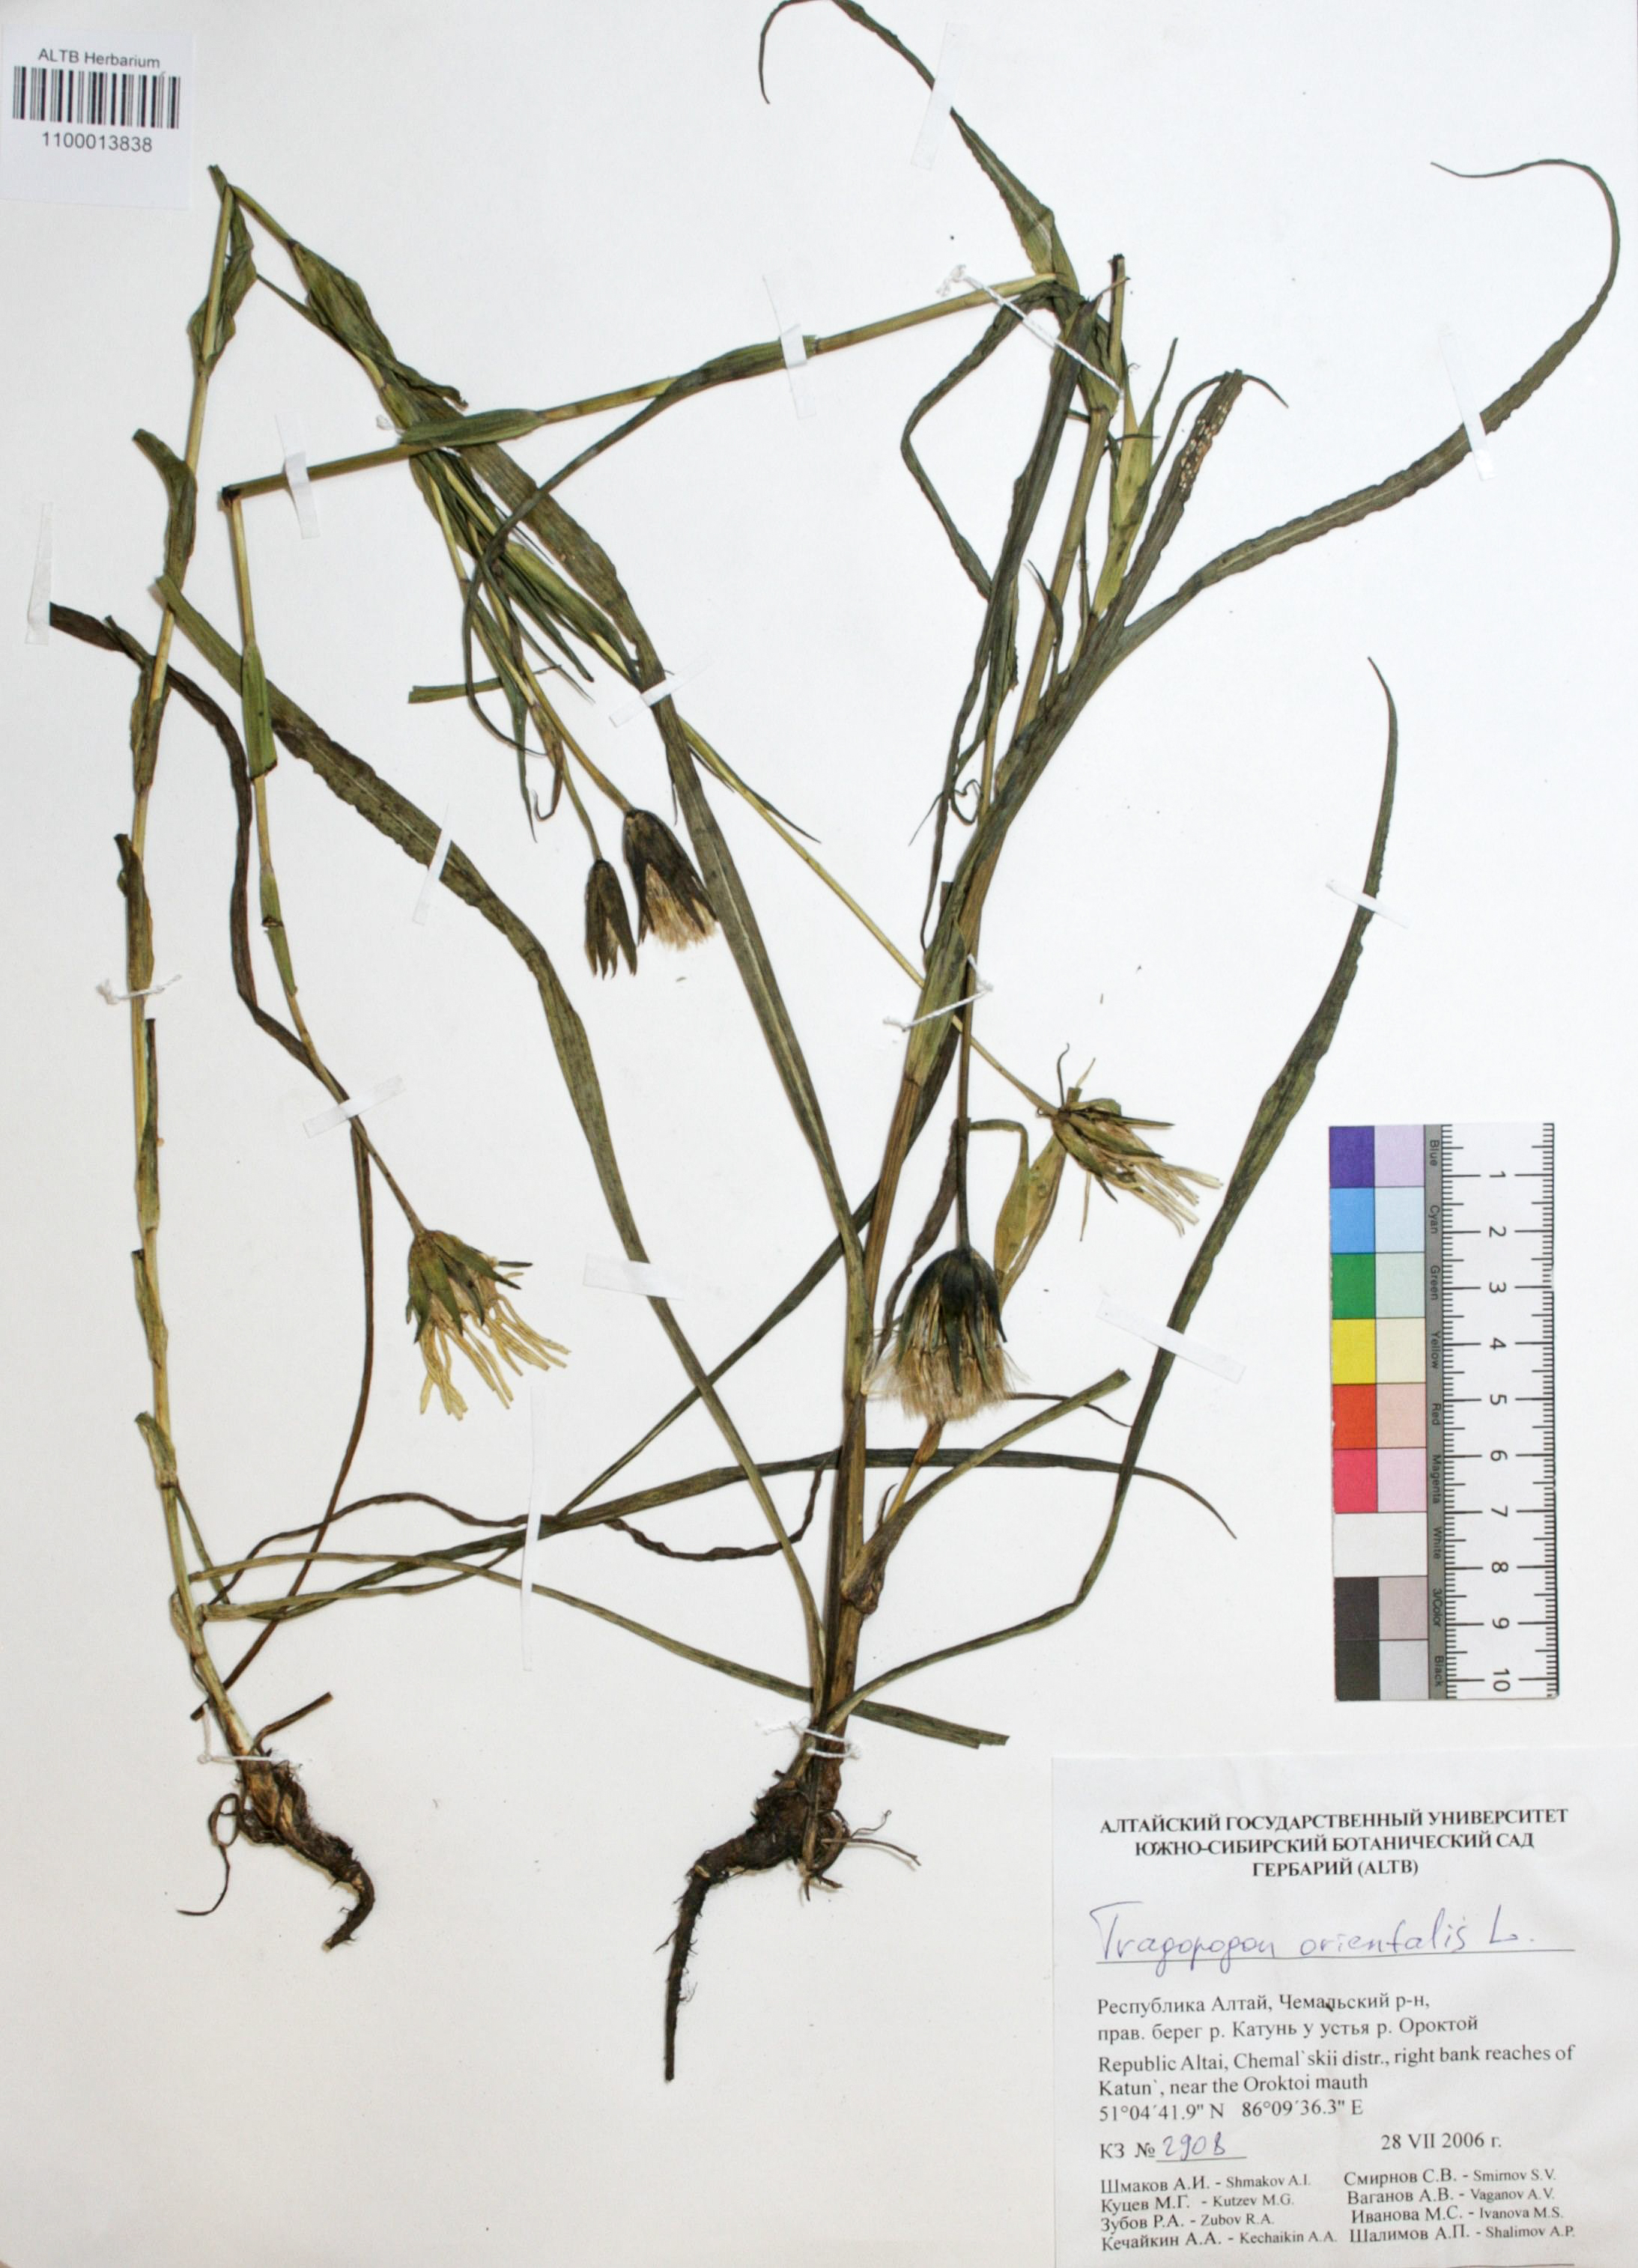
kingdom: Plantae
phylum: Tracheophyta
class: Magnoliopsida
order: Asterales
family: Asteraceae
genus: Tragopogon
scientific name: Tragopogon orientalis
